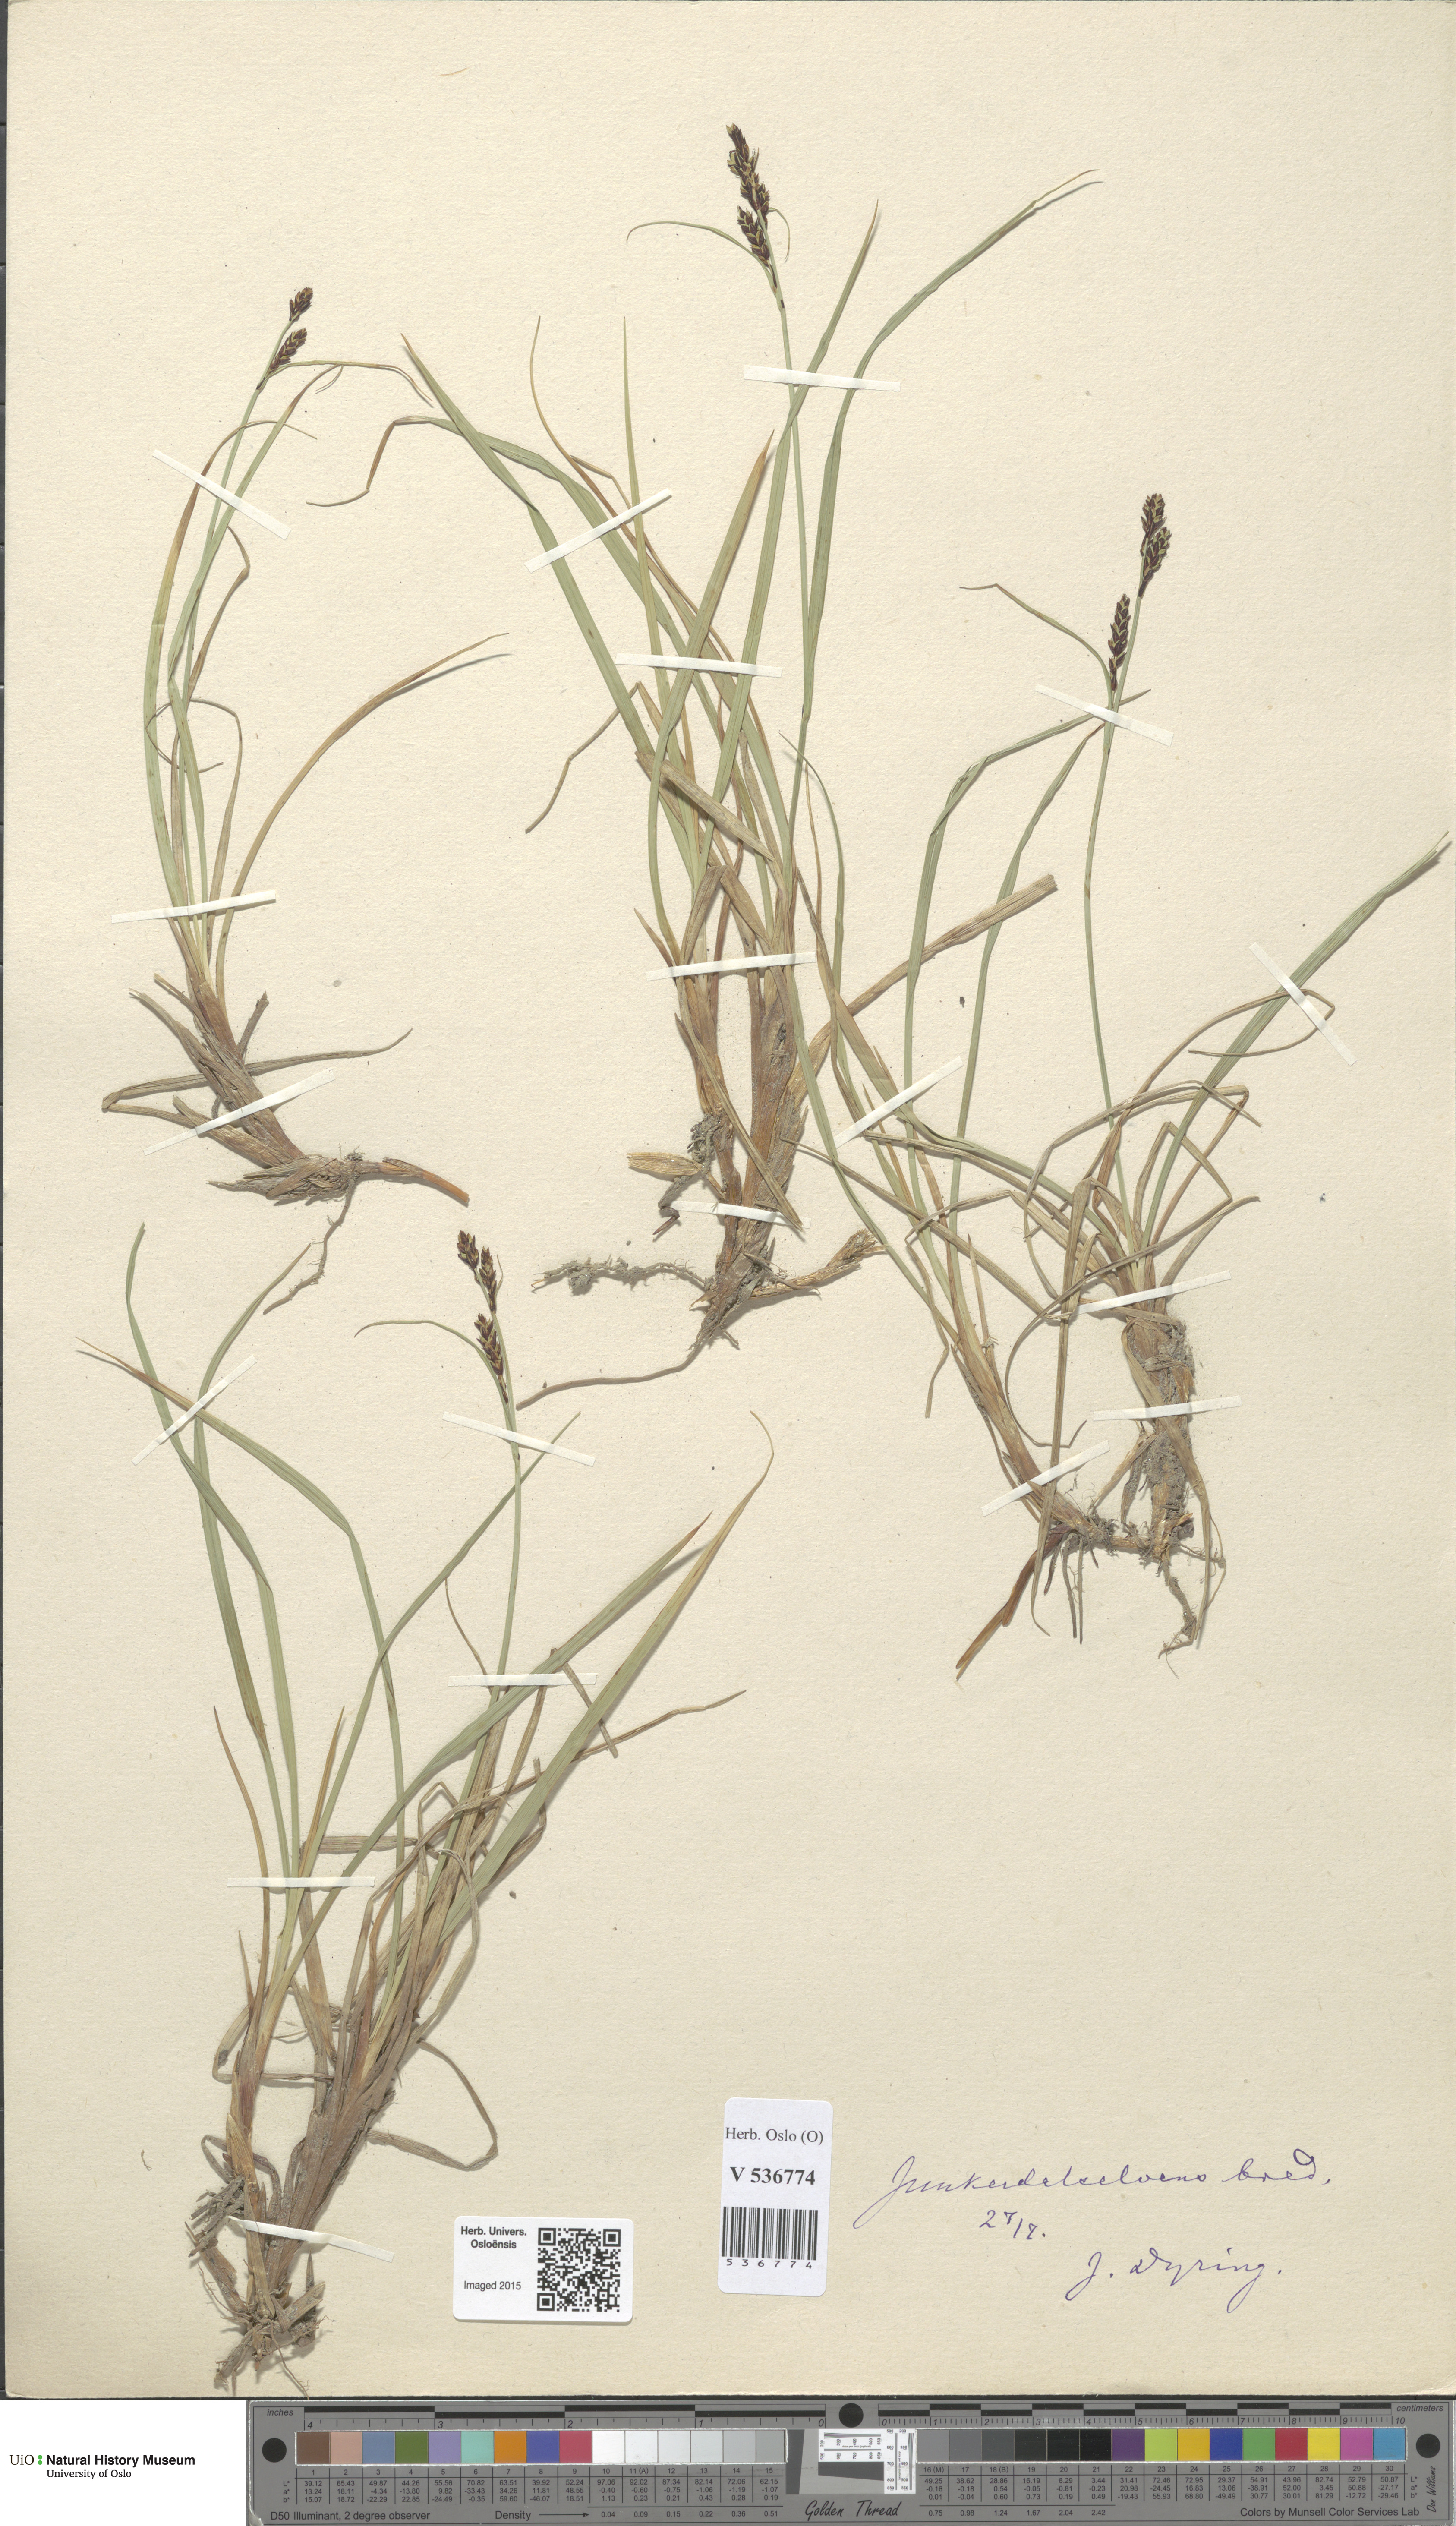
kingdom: Plantae
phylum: Tracheophyta
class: Liliopsida
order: Poales
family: Cyperaceae
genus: Carex
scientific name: Carex dacica
